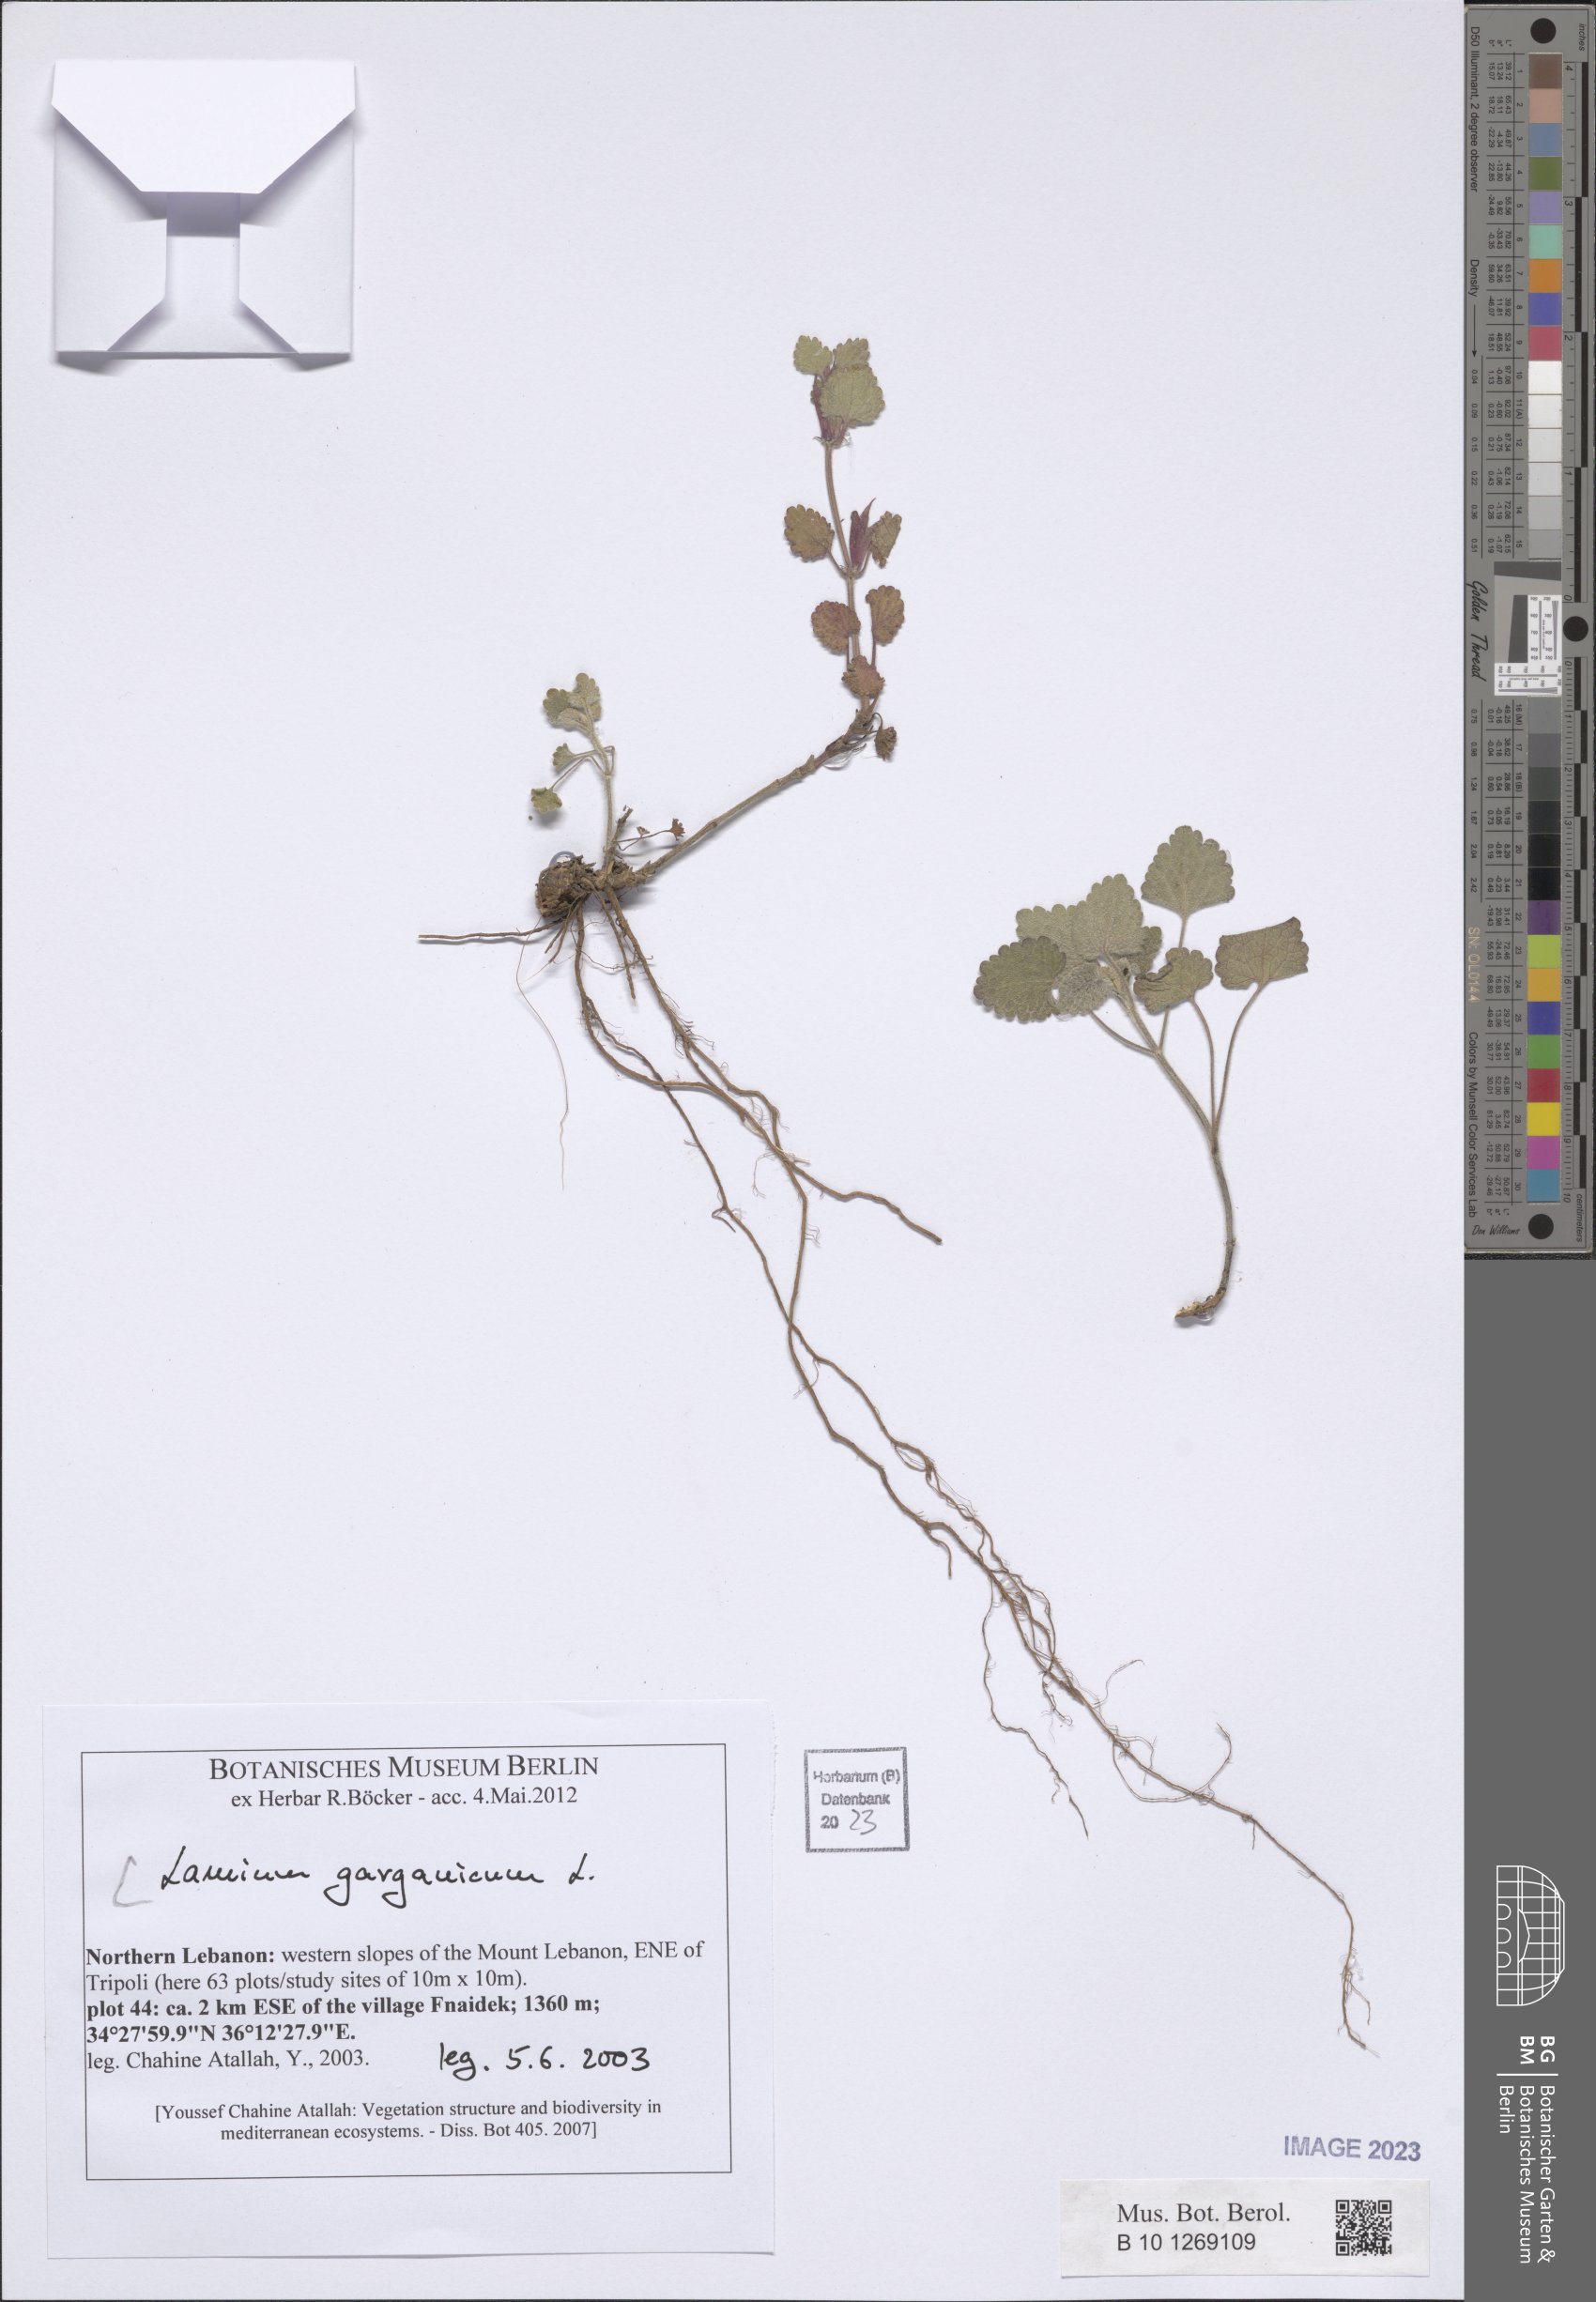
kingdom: Plantae
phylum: Tracheophyta
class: Magnoliopsida
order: Lamiales
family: Lamiaceae
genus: Lamium
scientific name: Lamium garganicum
